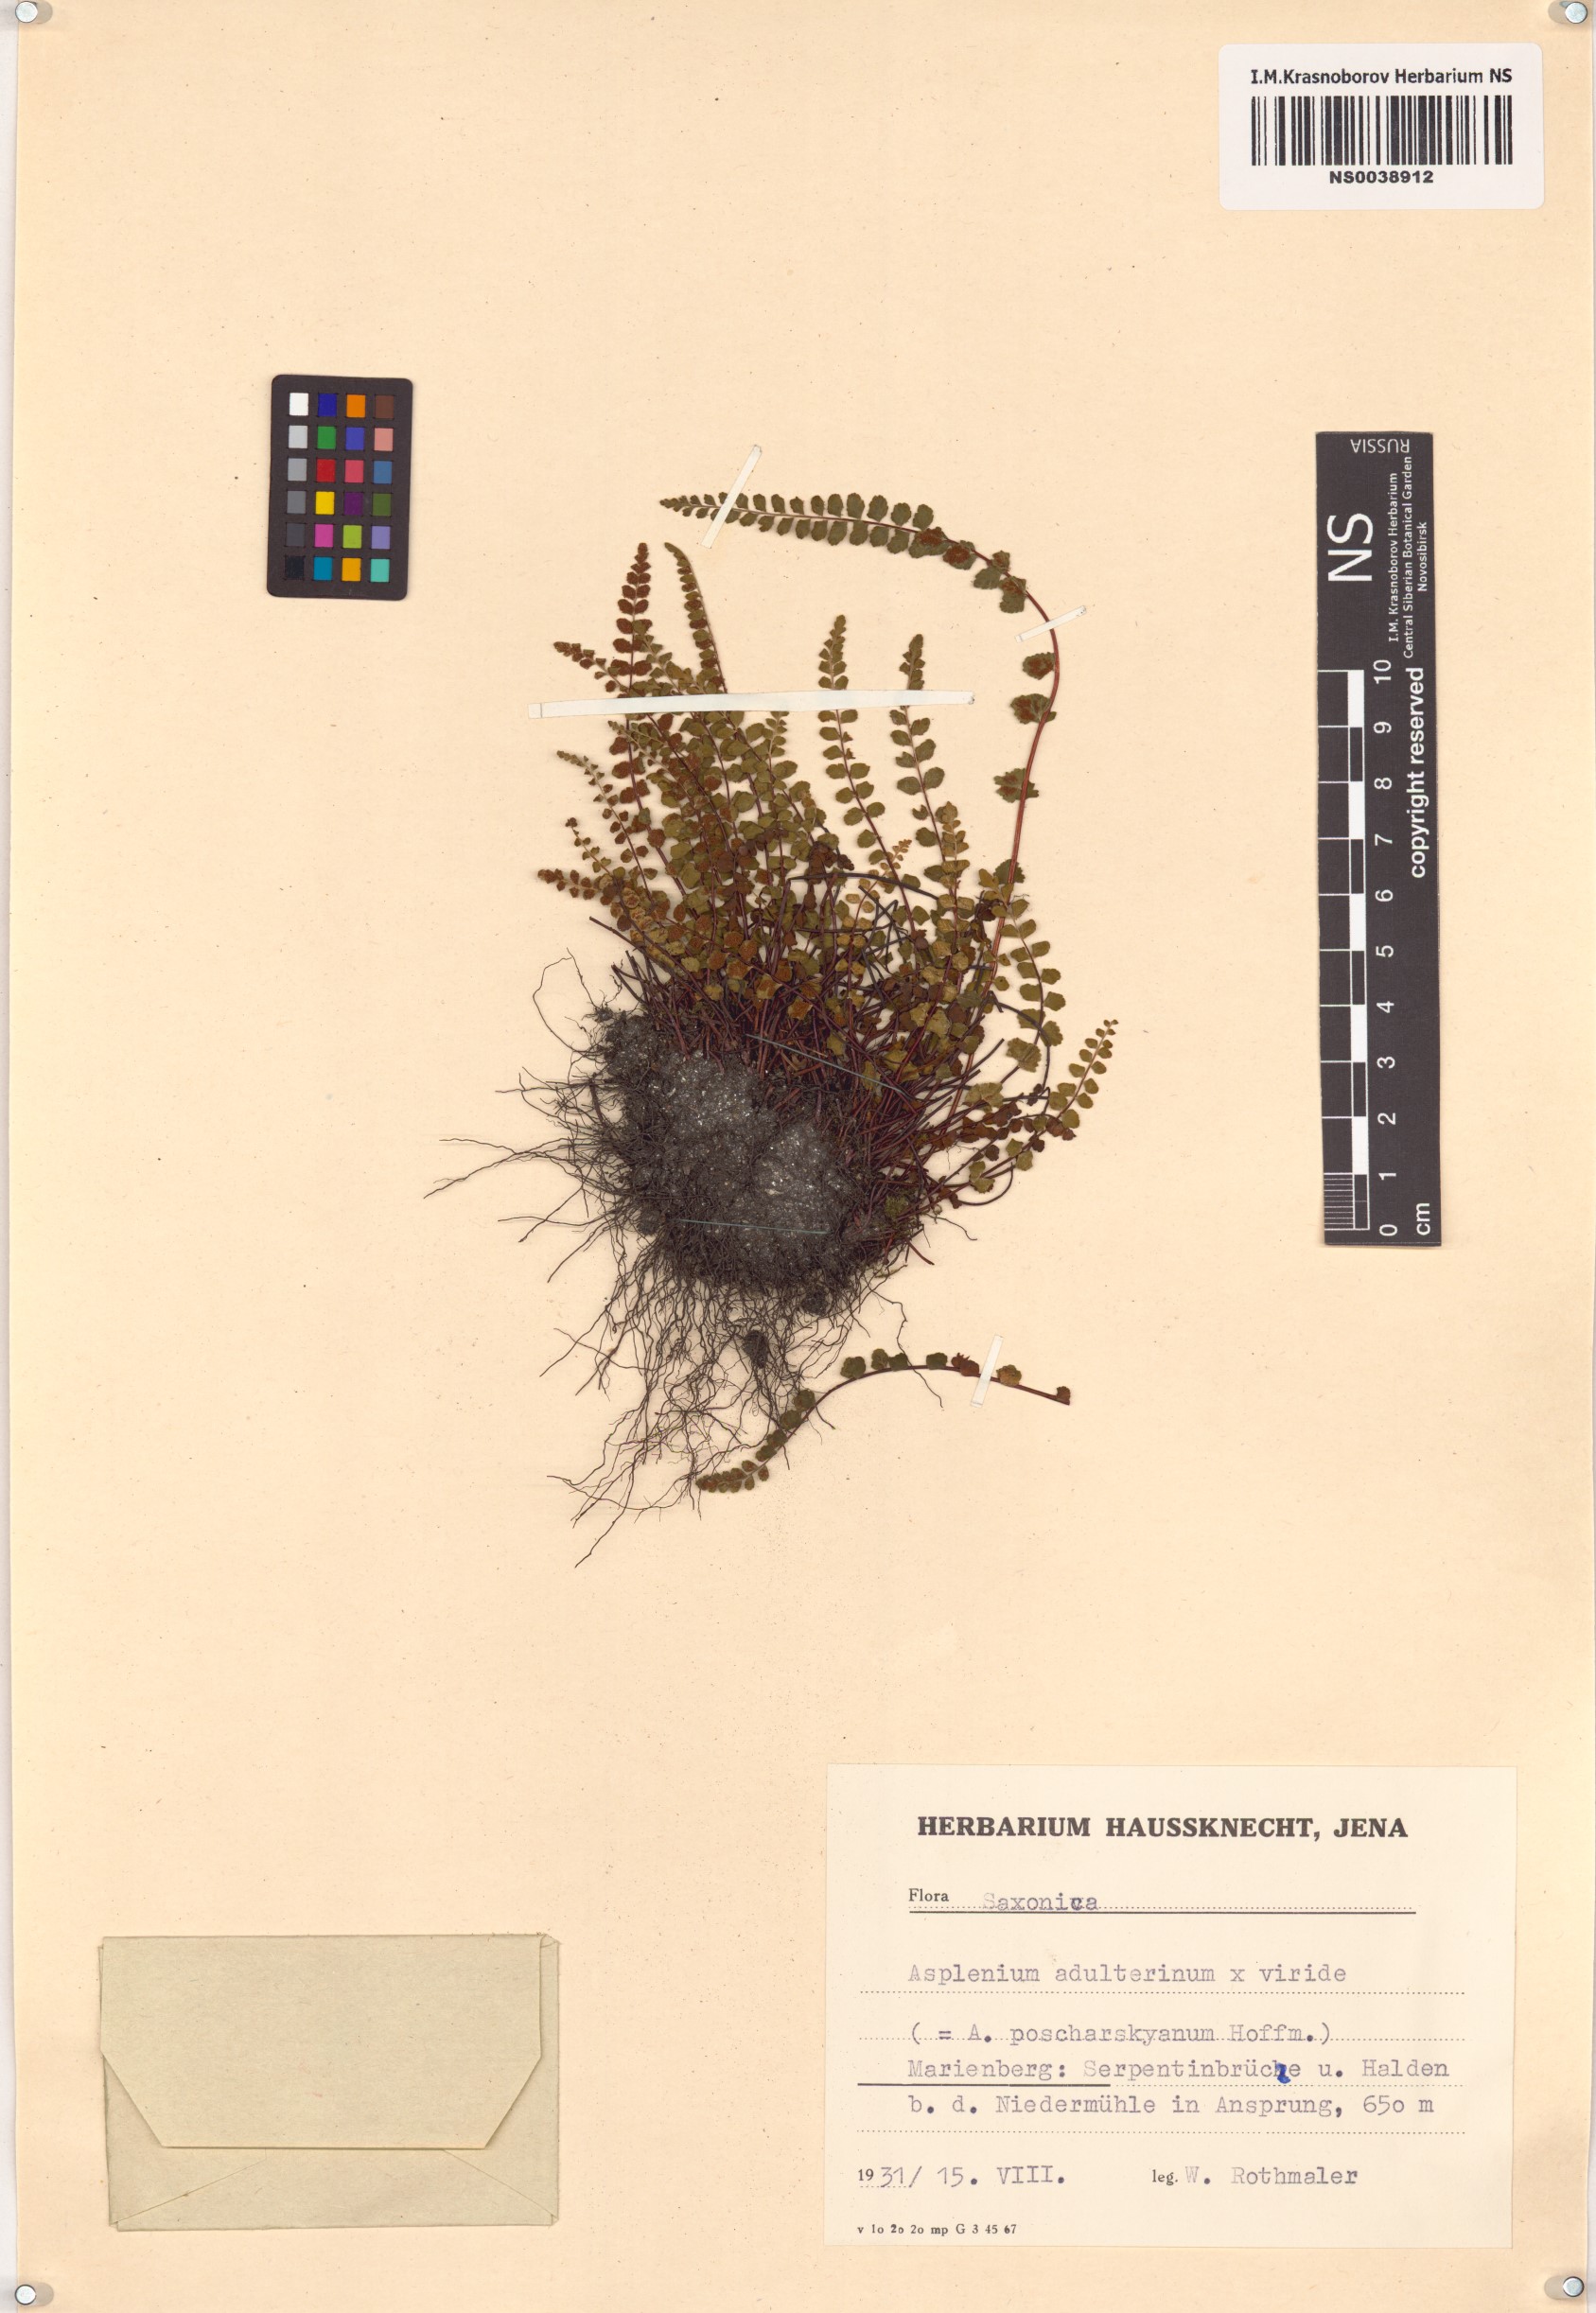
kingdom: Plantae
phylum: Tracheophyta
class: Polypodiopsida
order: Polypodiales
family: Aspleniaceae
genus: Asplenium
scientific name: Asplenium adulterinum
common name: Adulterated spleenwort
